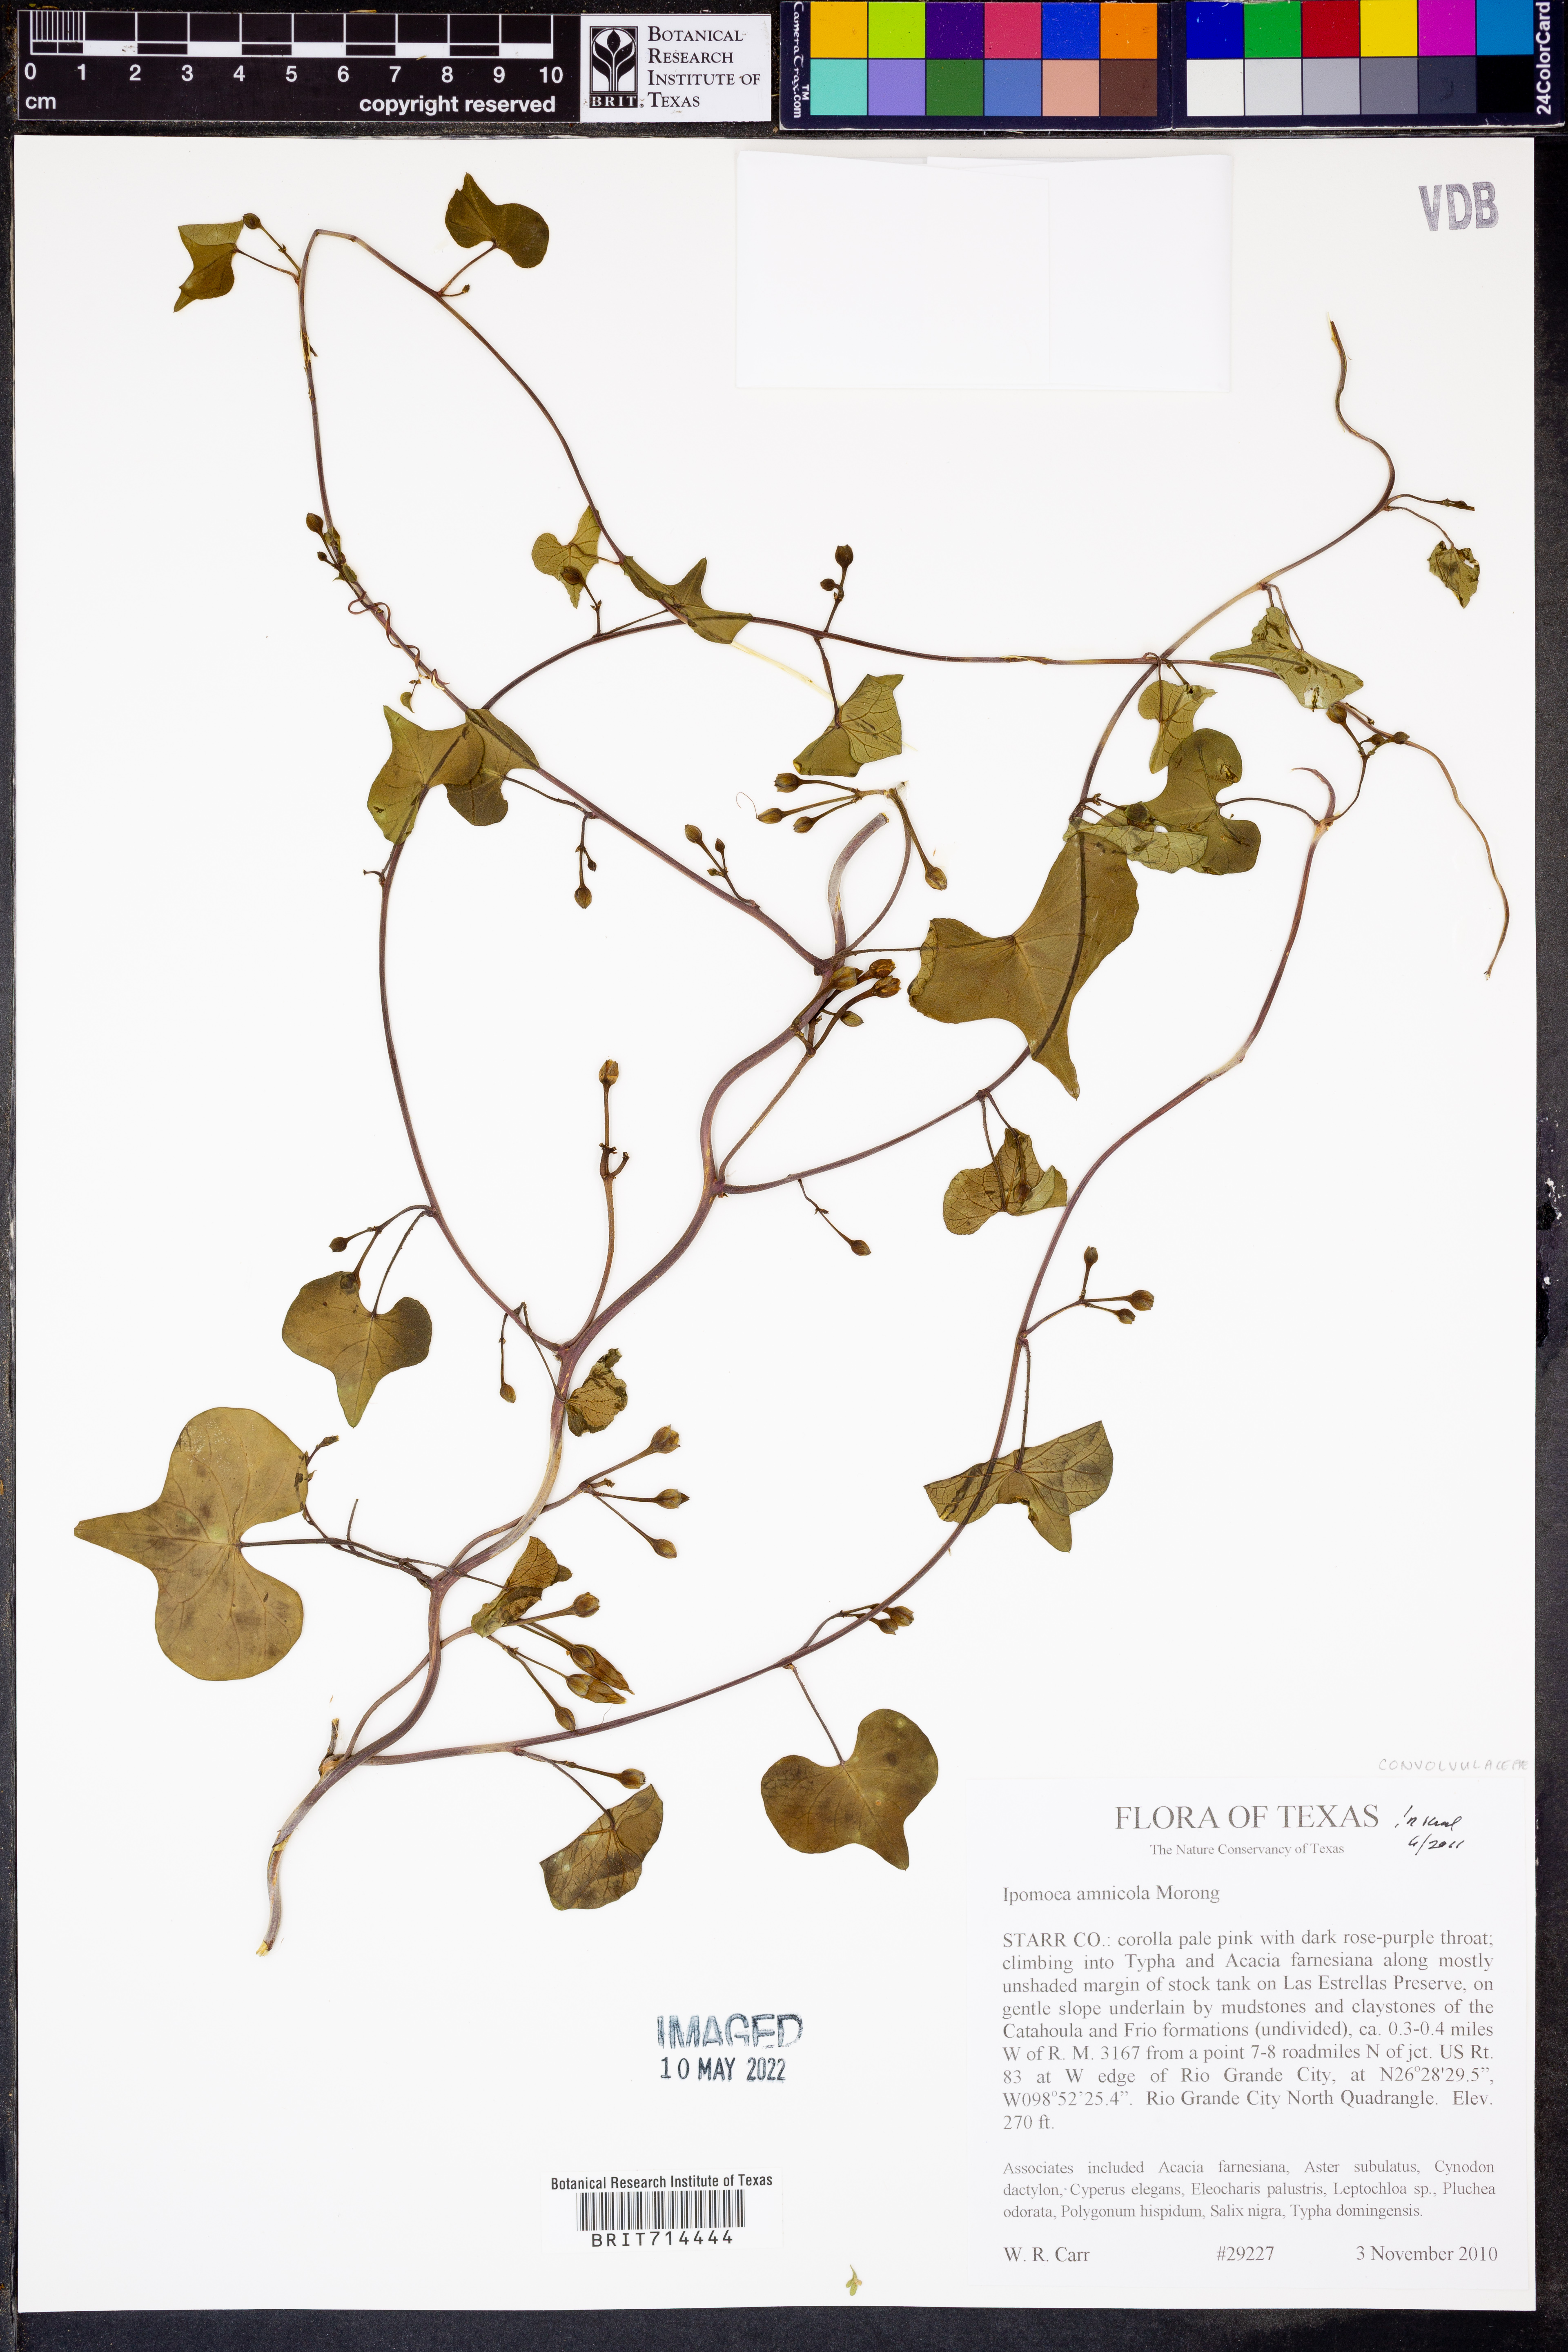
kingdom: Plantae
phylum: Tracheophyta
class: Magnoliopsida
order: Solanales
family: Convolvulaceae
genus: Ipomoea
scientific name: Ipomoea amnicola
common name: Redcenter morning-glory
